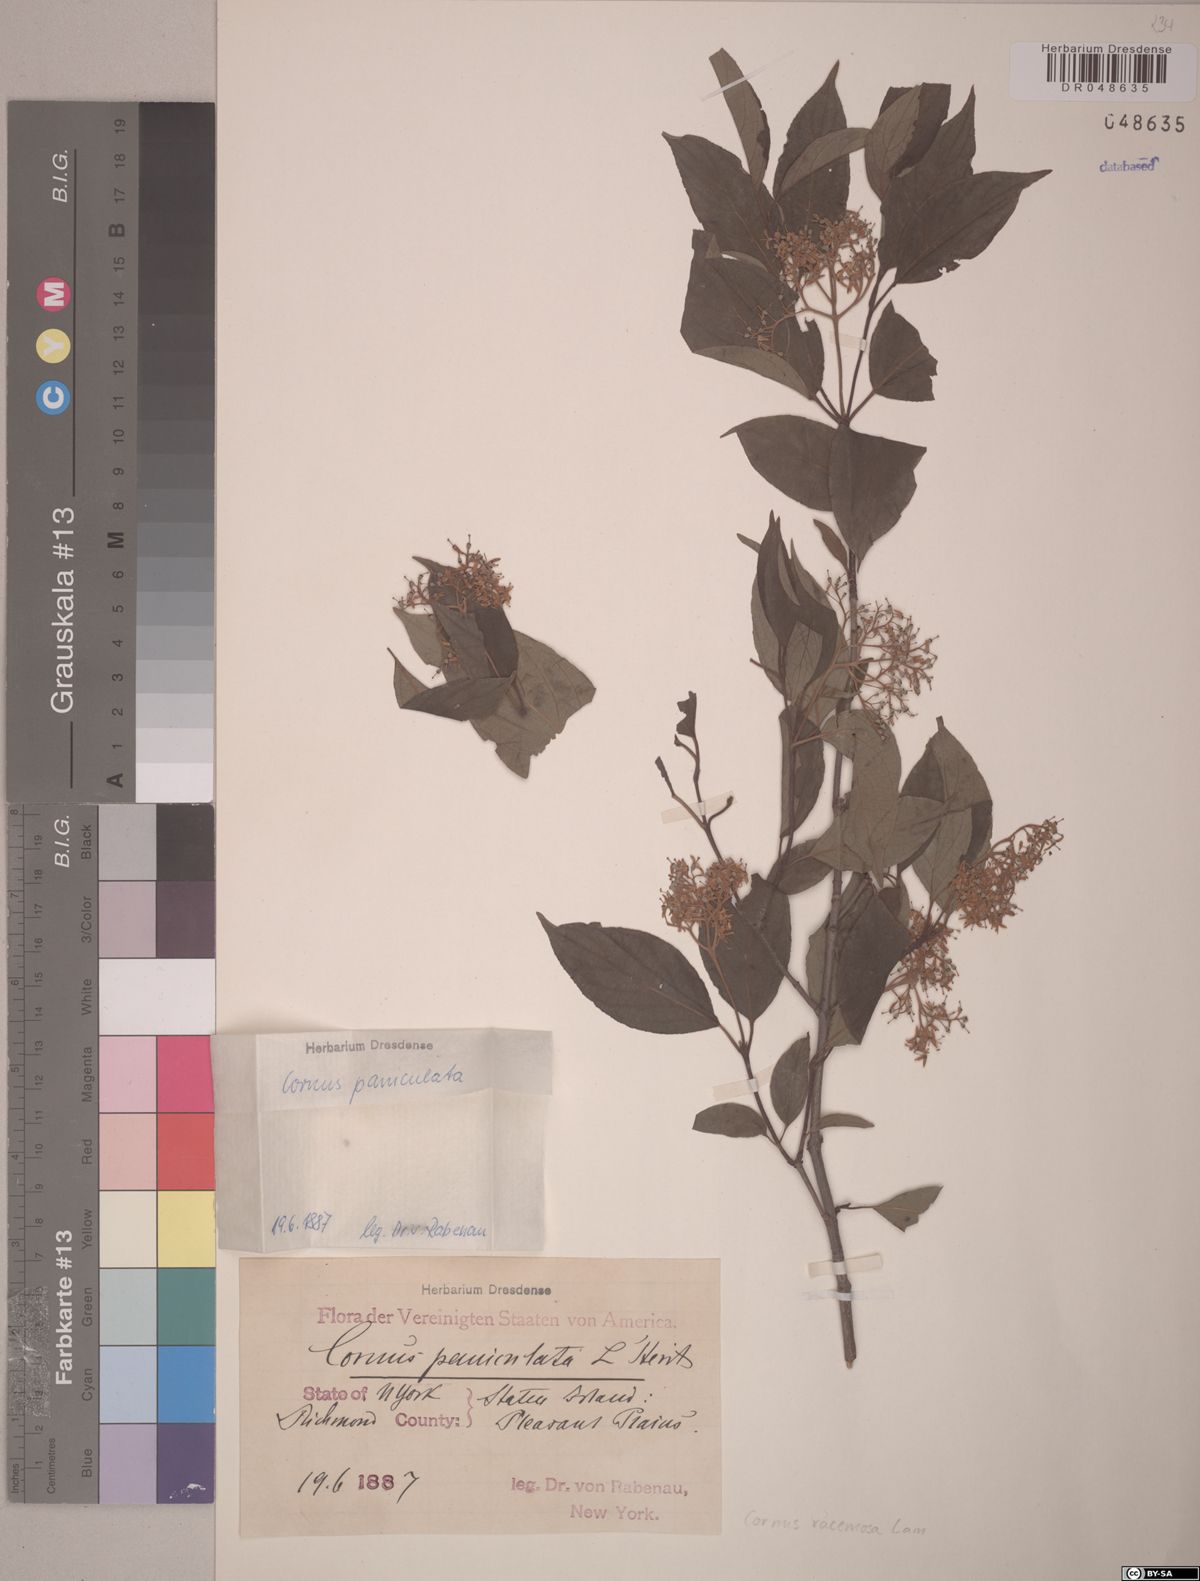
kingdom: Plantae
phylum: Tracheophyta
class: Magnoliopsida
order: Cornales
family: Cornaceae
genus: Cornus
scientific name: Cornus racemosa
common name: Panicled dogwood
